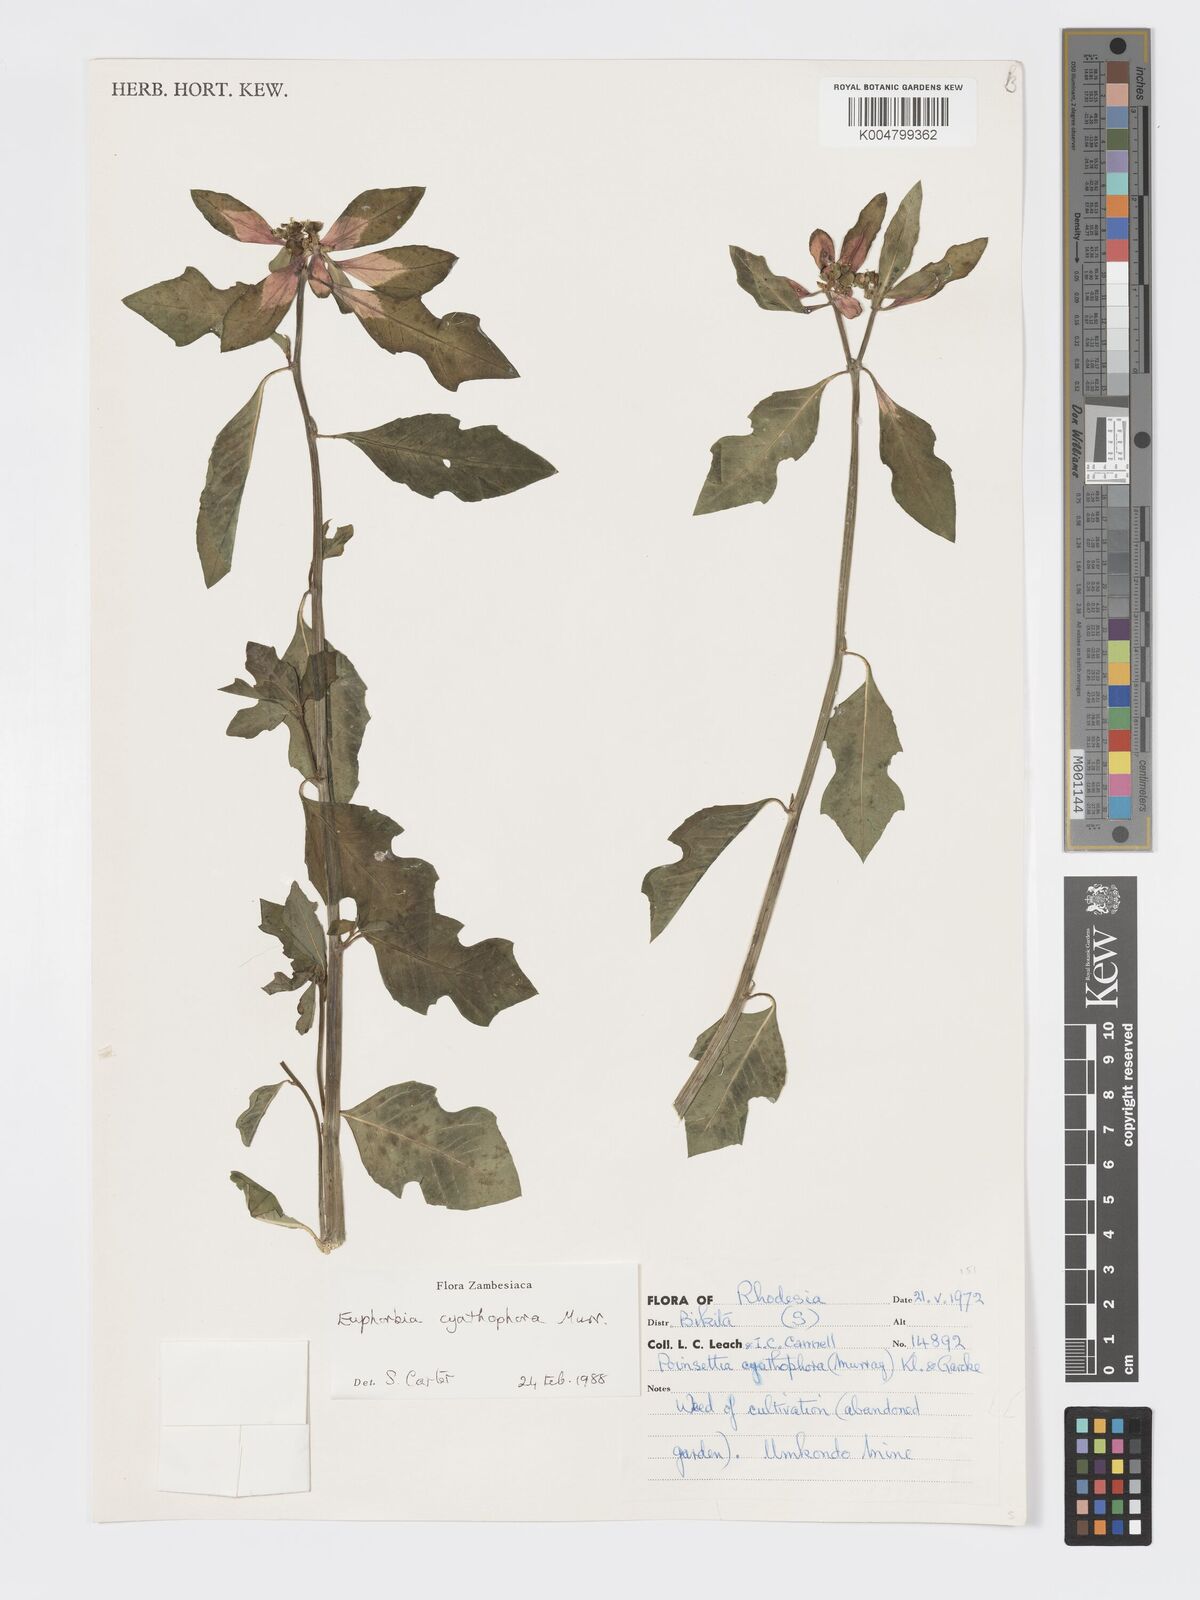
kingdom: Plantae
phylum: Tracheophyta
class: Magnoliopsida
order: Malpighiales
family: Euphorbiaceae
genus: Euphorbia
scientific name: Euphorbia heterophylla
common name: Mexican fireplant
